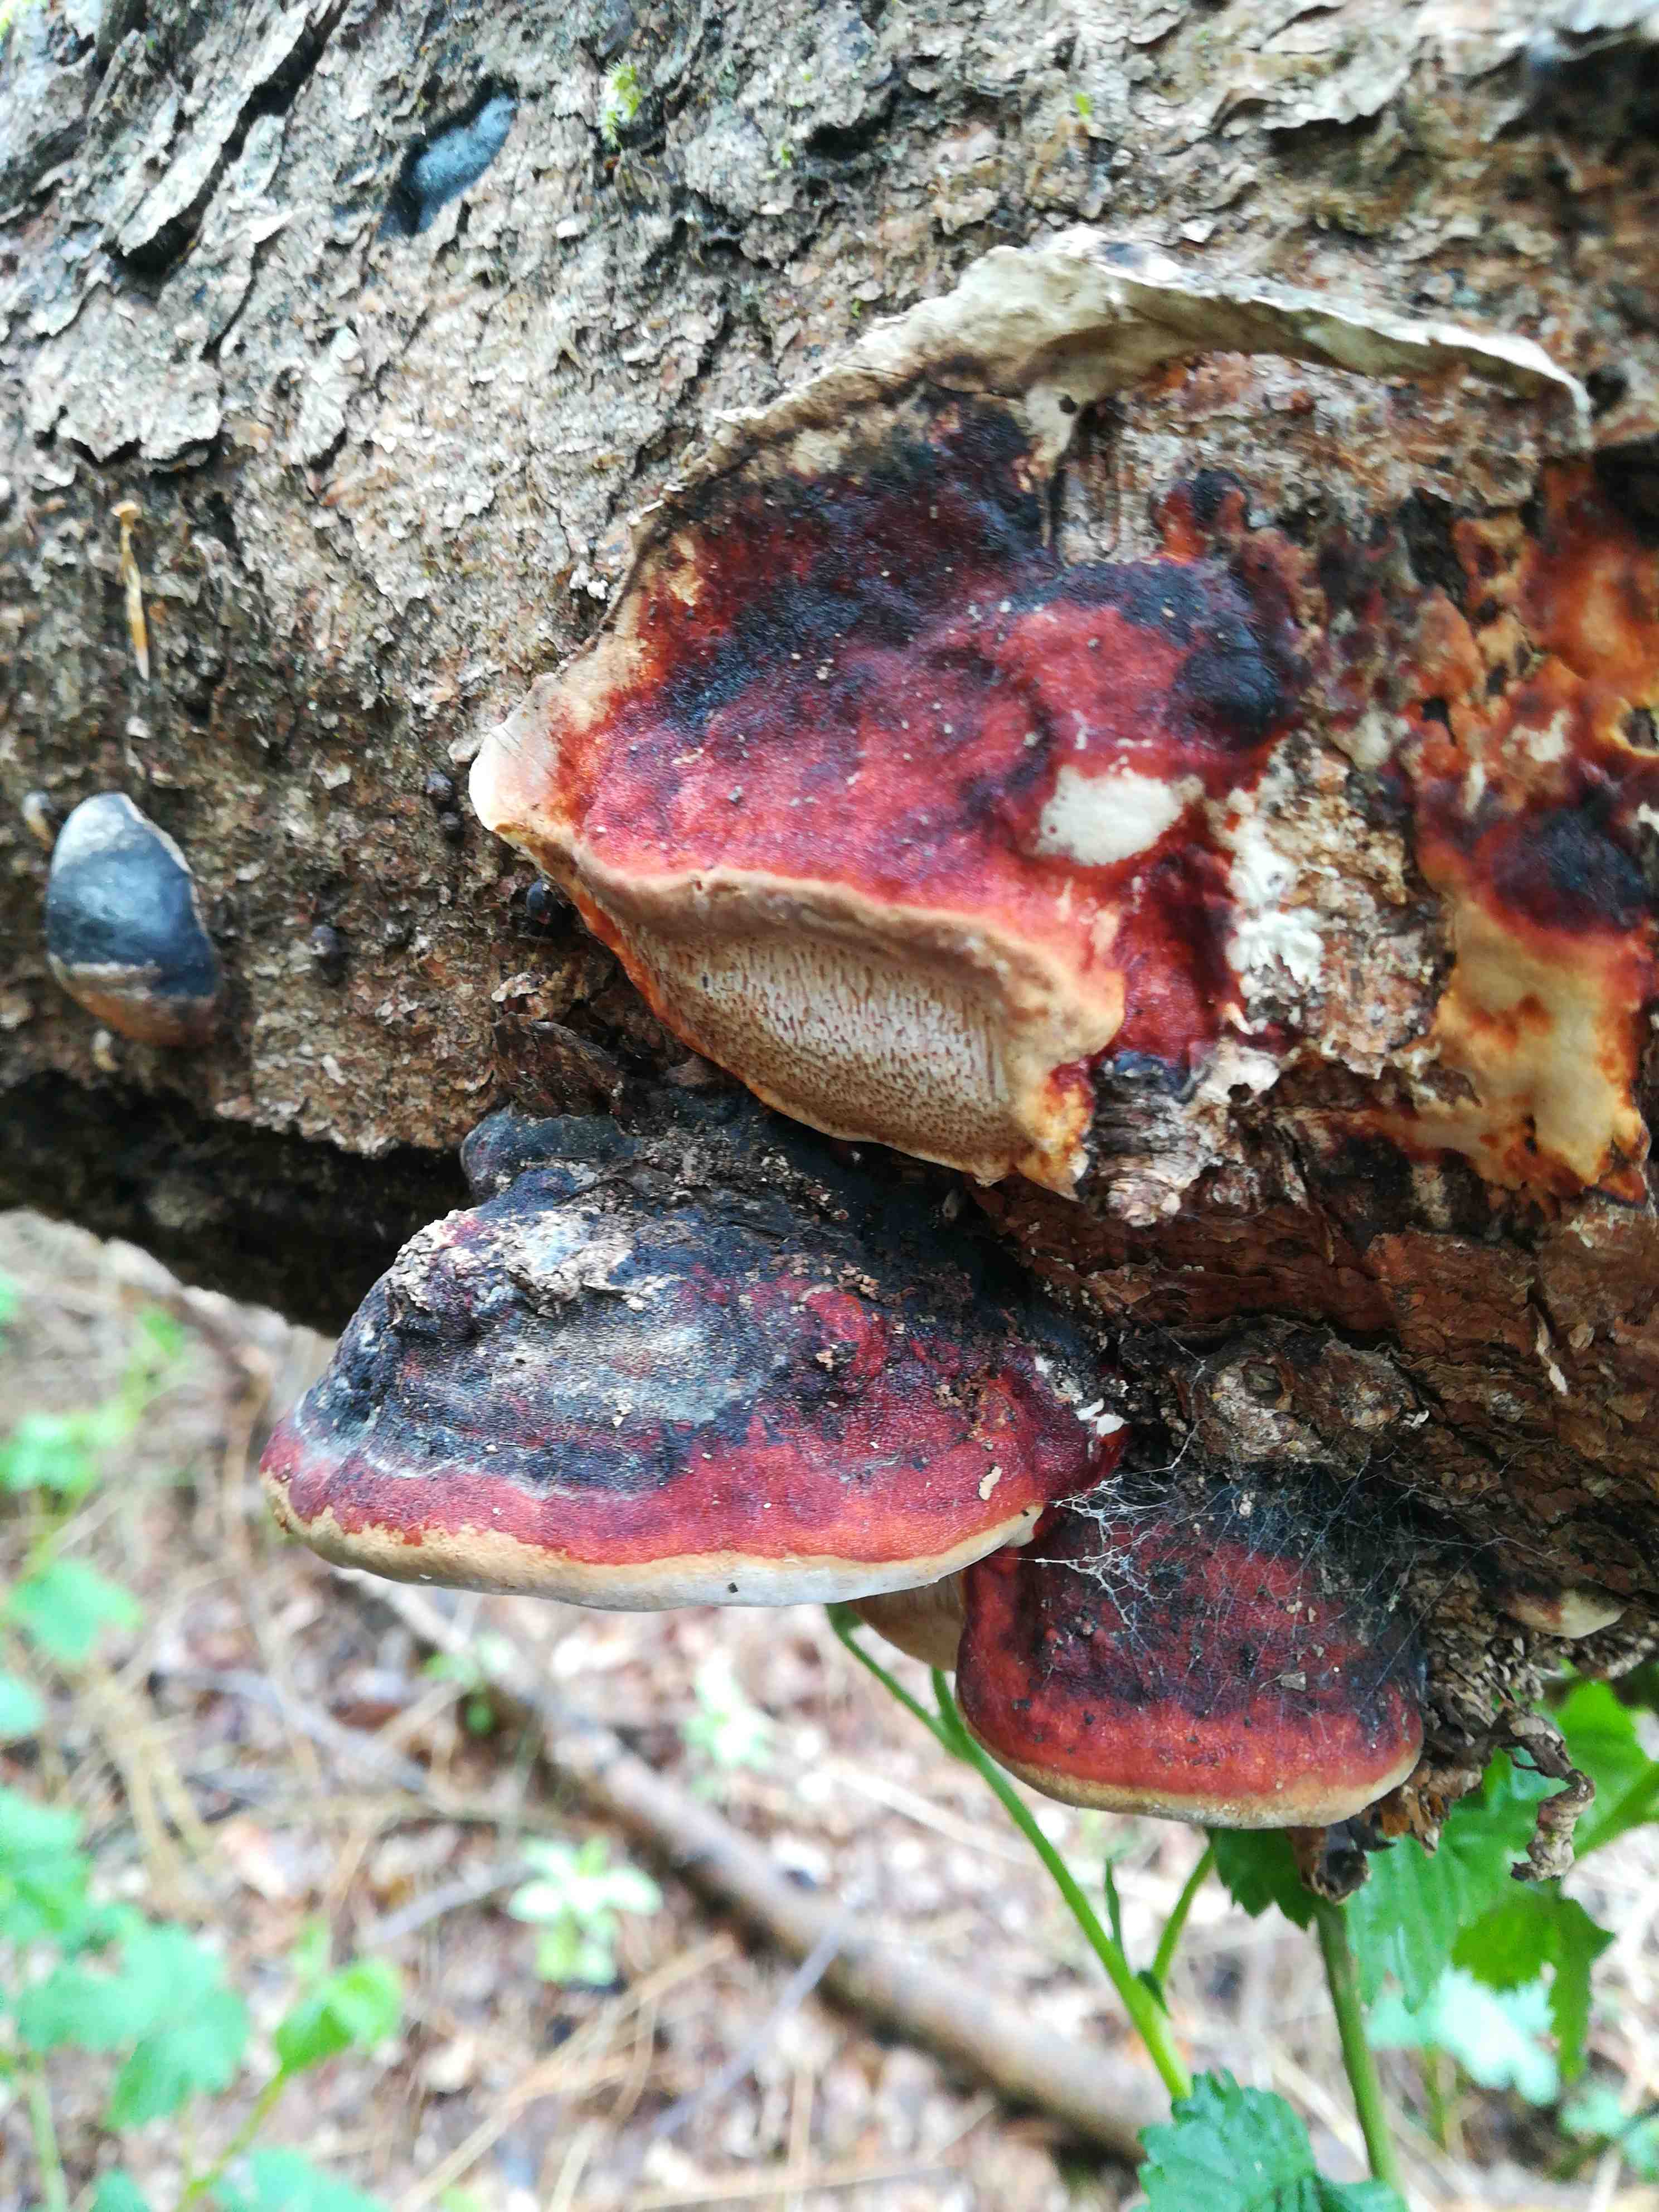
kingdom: Fungi
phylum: Basidiomycota
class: Agaricomycetes
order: Polyporales
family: Fomitopsidaceae
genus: Fomitopsis
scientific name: Fomitopsis pinicola
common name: randbæltet hovporesvamp
